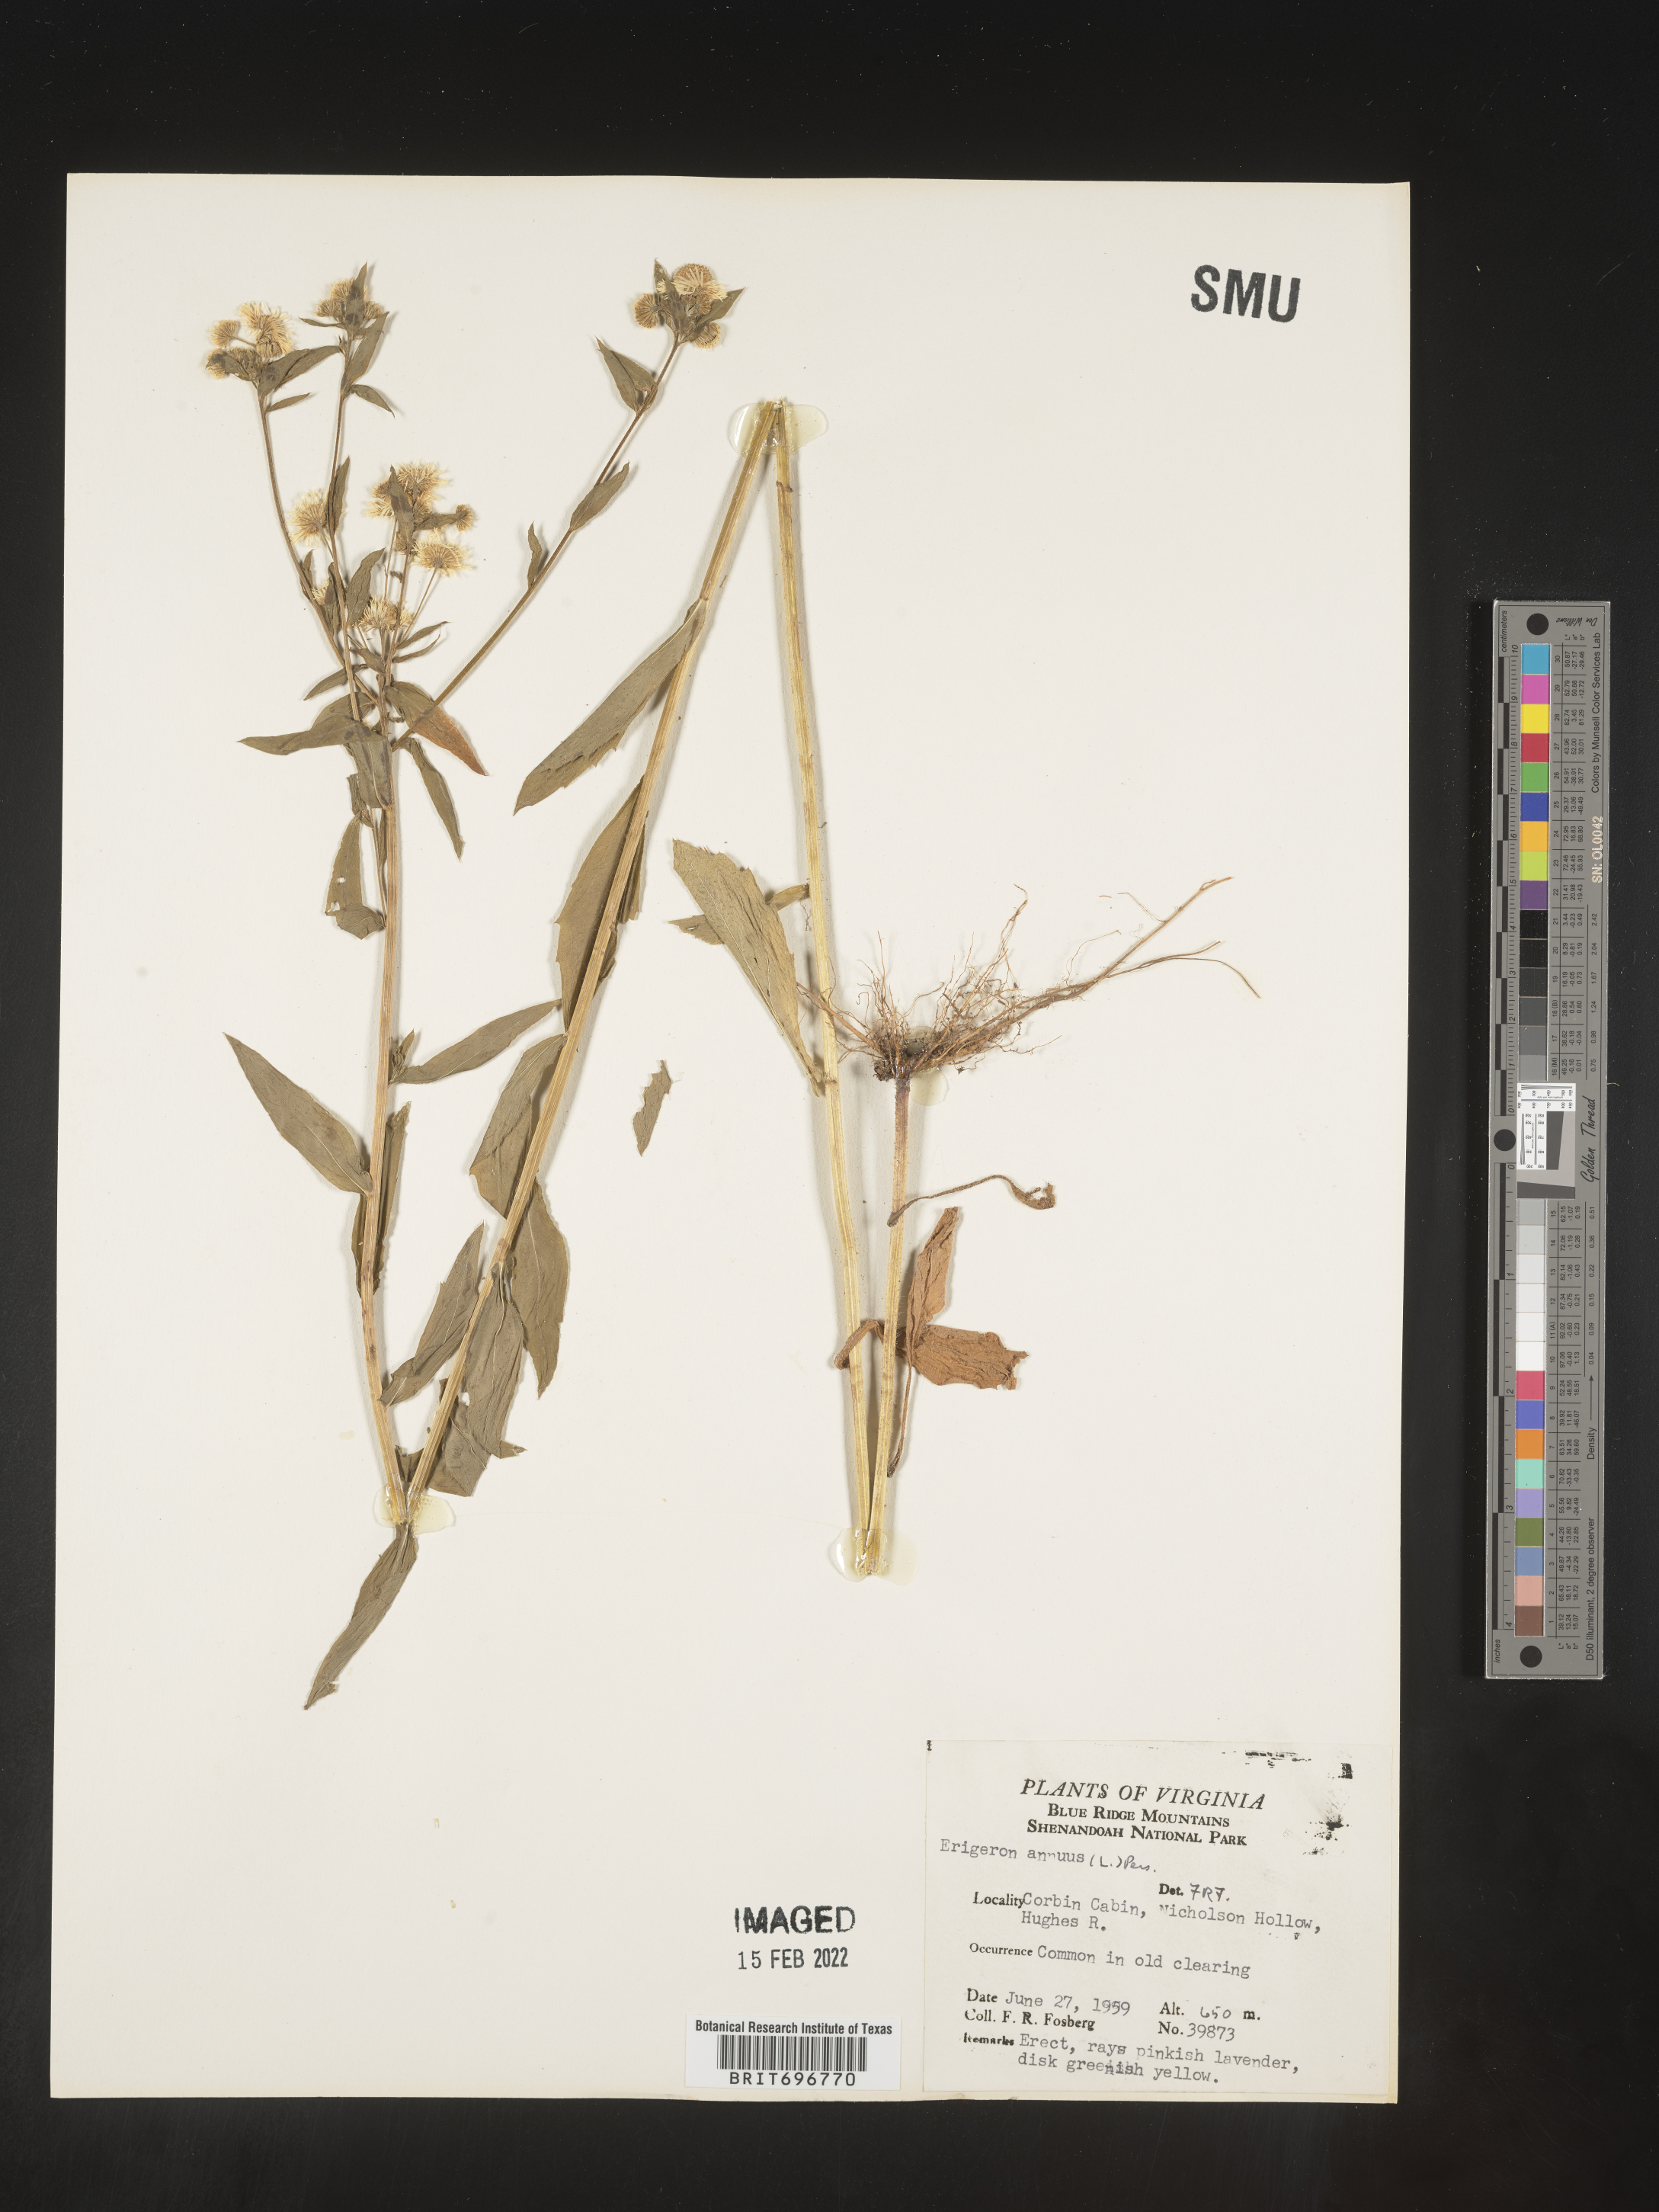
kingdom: Plantae
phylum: Tracheophyta
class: Magnoliopsida
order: Asterales
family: Asteraceae
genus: Erigeron
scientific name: Erigeron annuus
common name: Tall fleabane
